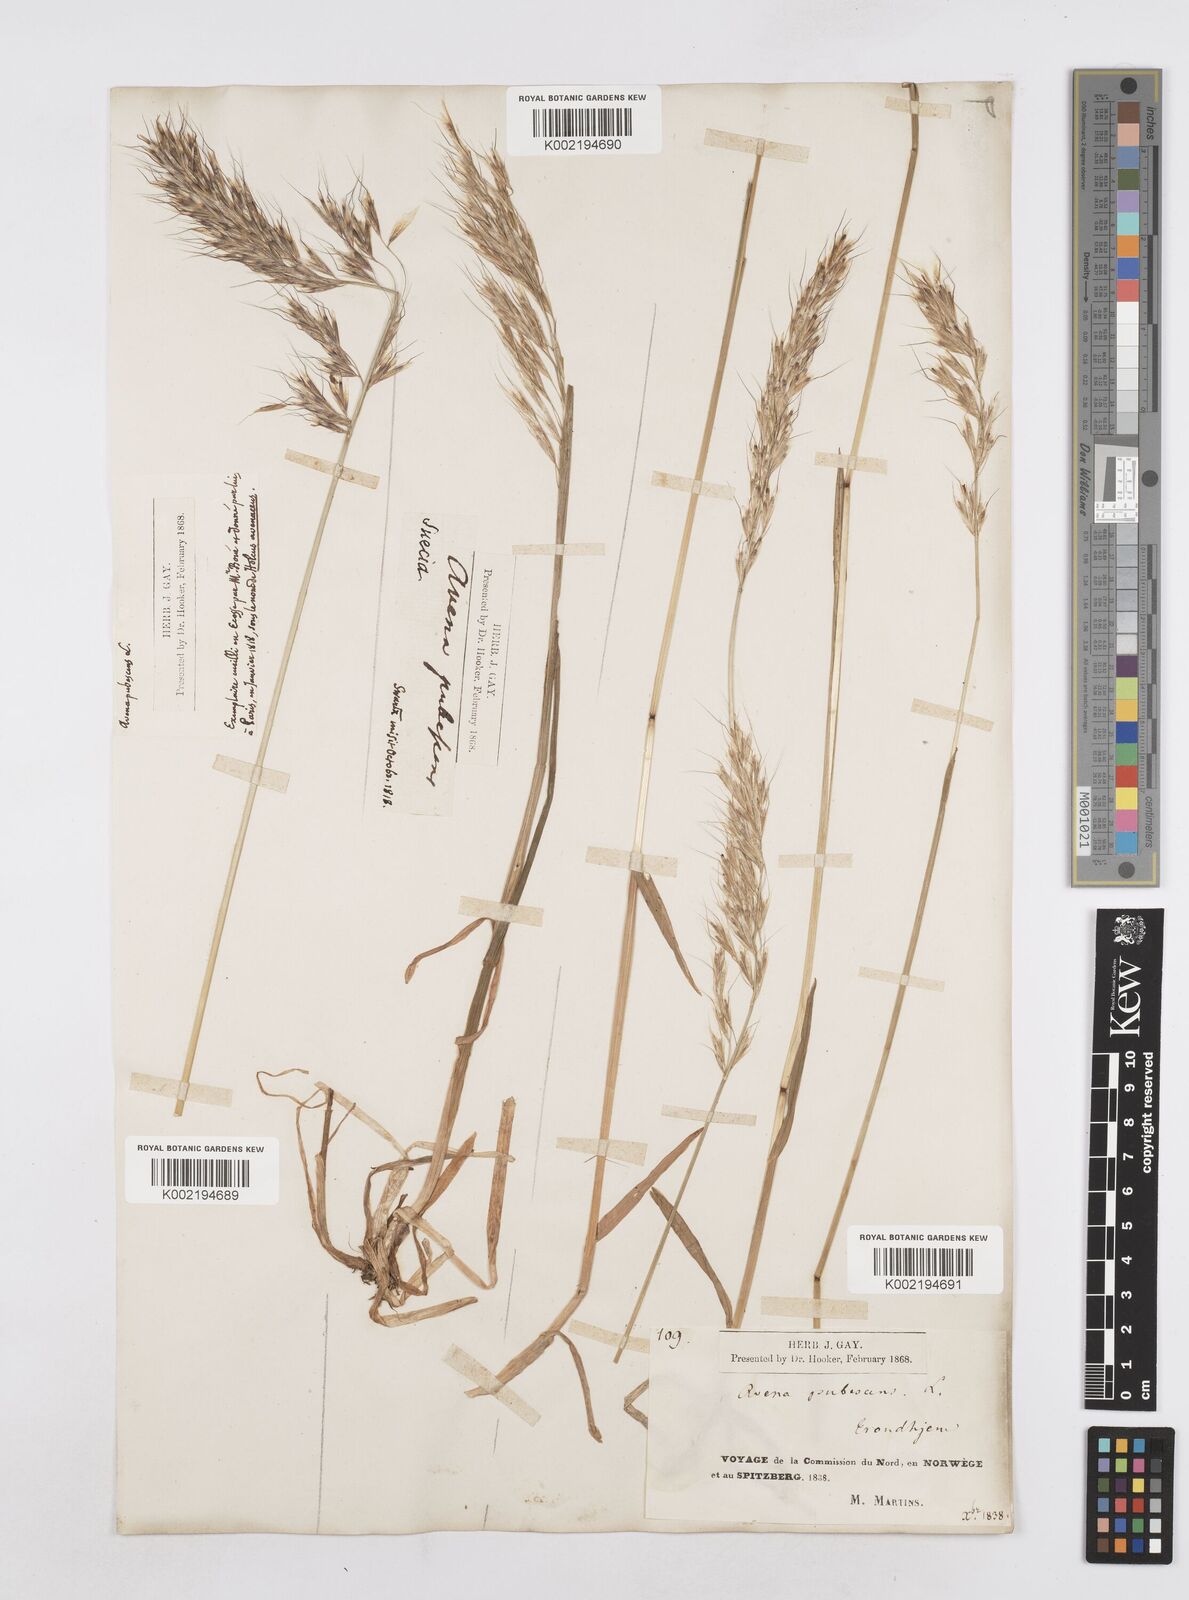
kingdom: Plantae
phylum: Tracheophyta
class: Liliopsida
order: Poales
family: Poaceae
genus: Avenula
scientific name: Avenula pubescens
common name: Downy alpine oatgrass
